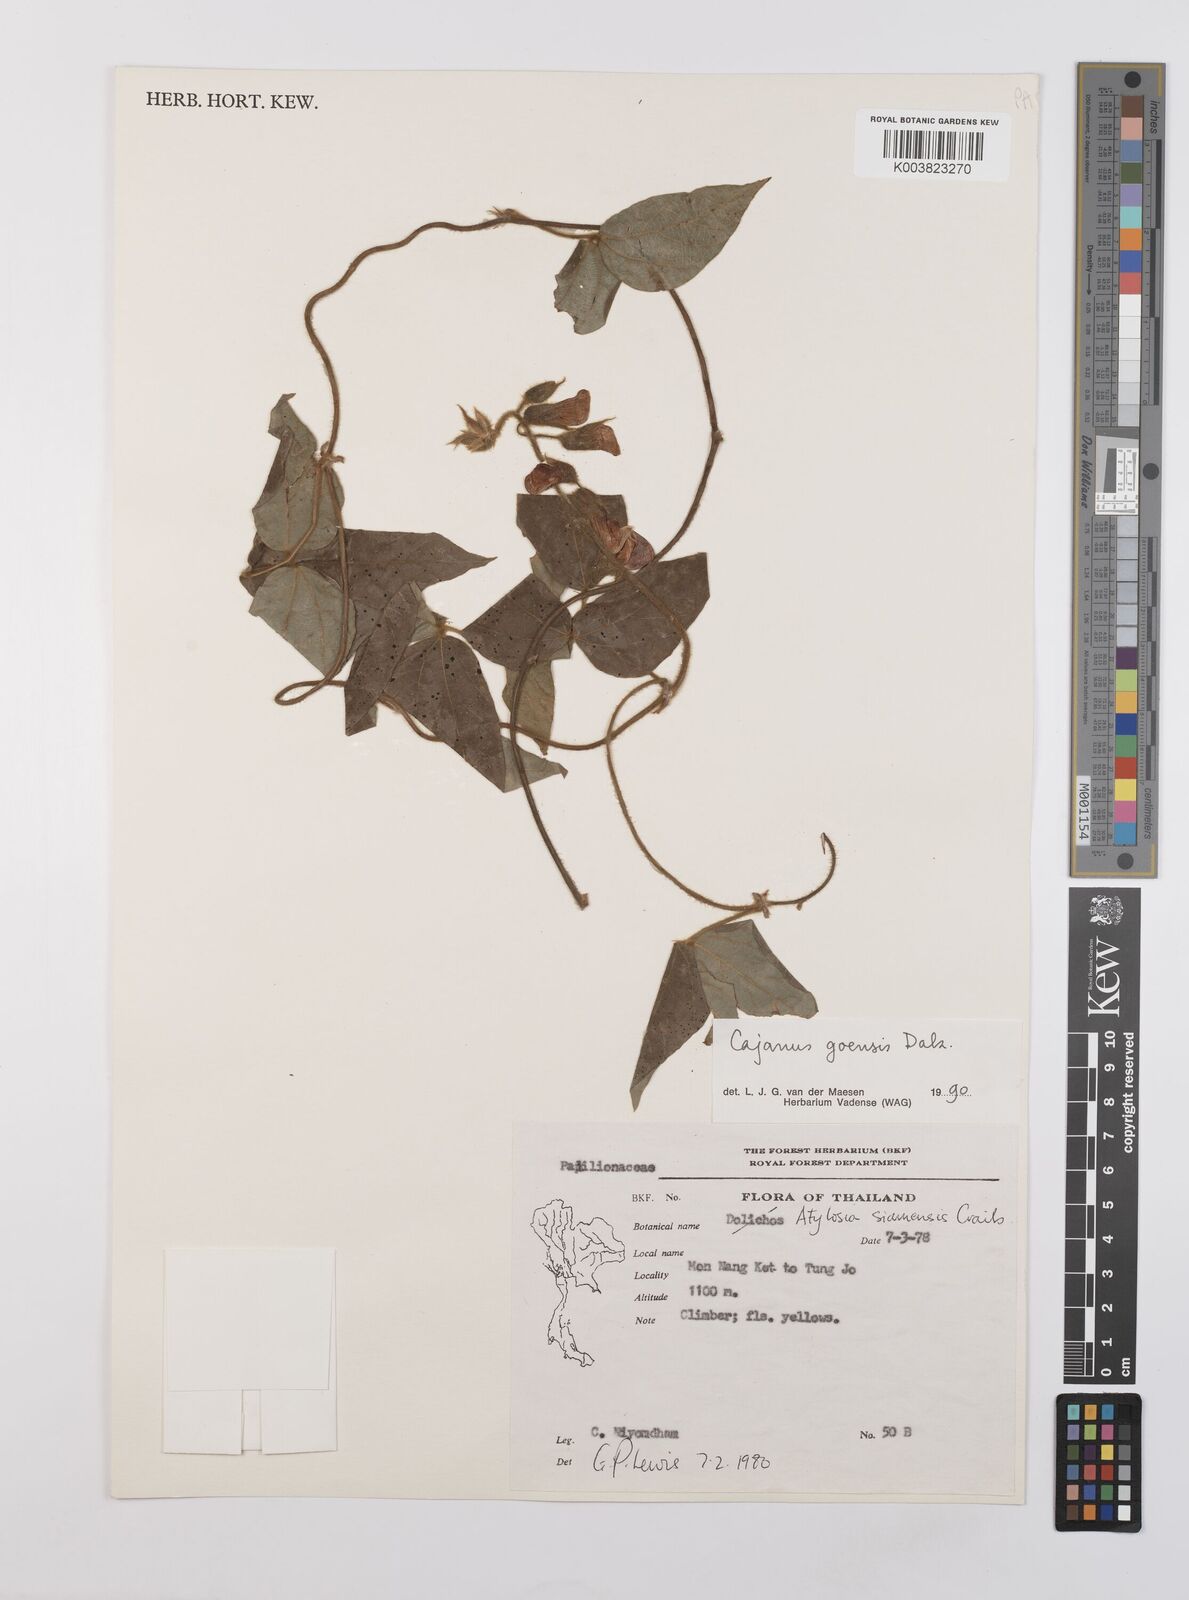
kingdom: Plantae
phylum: Tracheophyta
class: Magnoliopsida
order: Fabales
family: Fabaceae
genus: Cajanus
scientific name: Cajanus goensis
